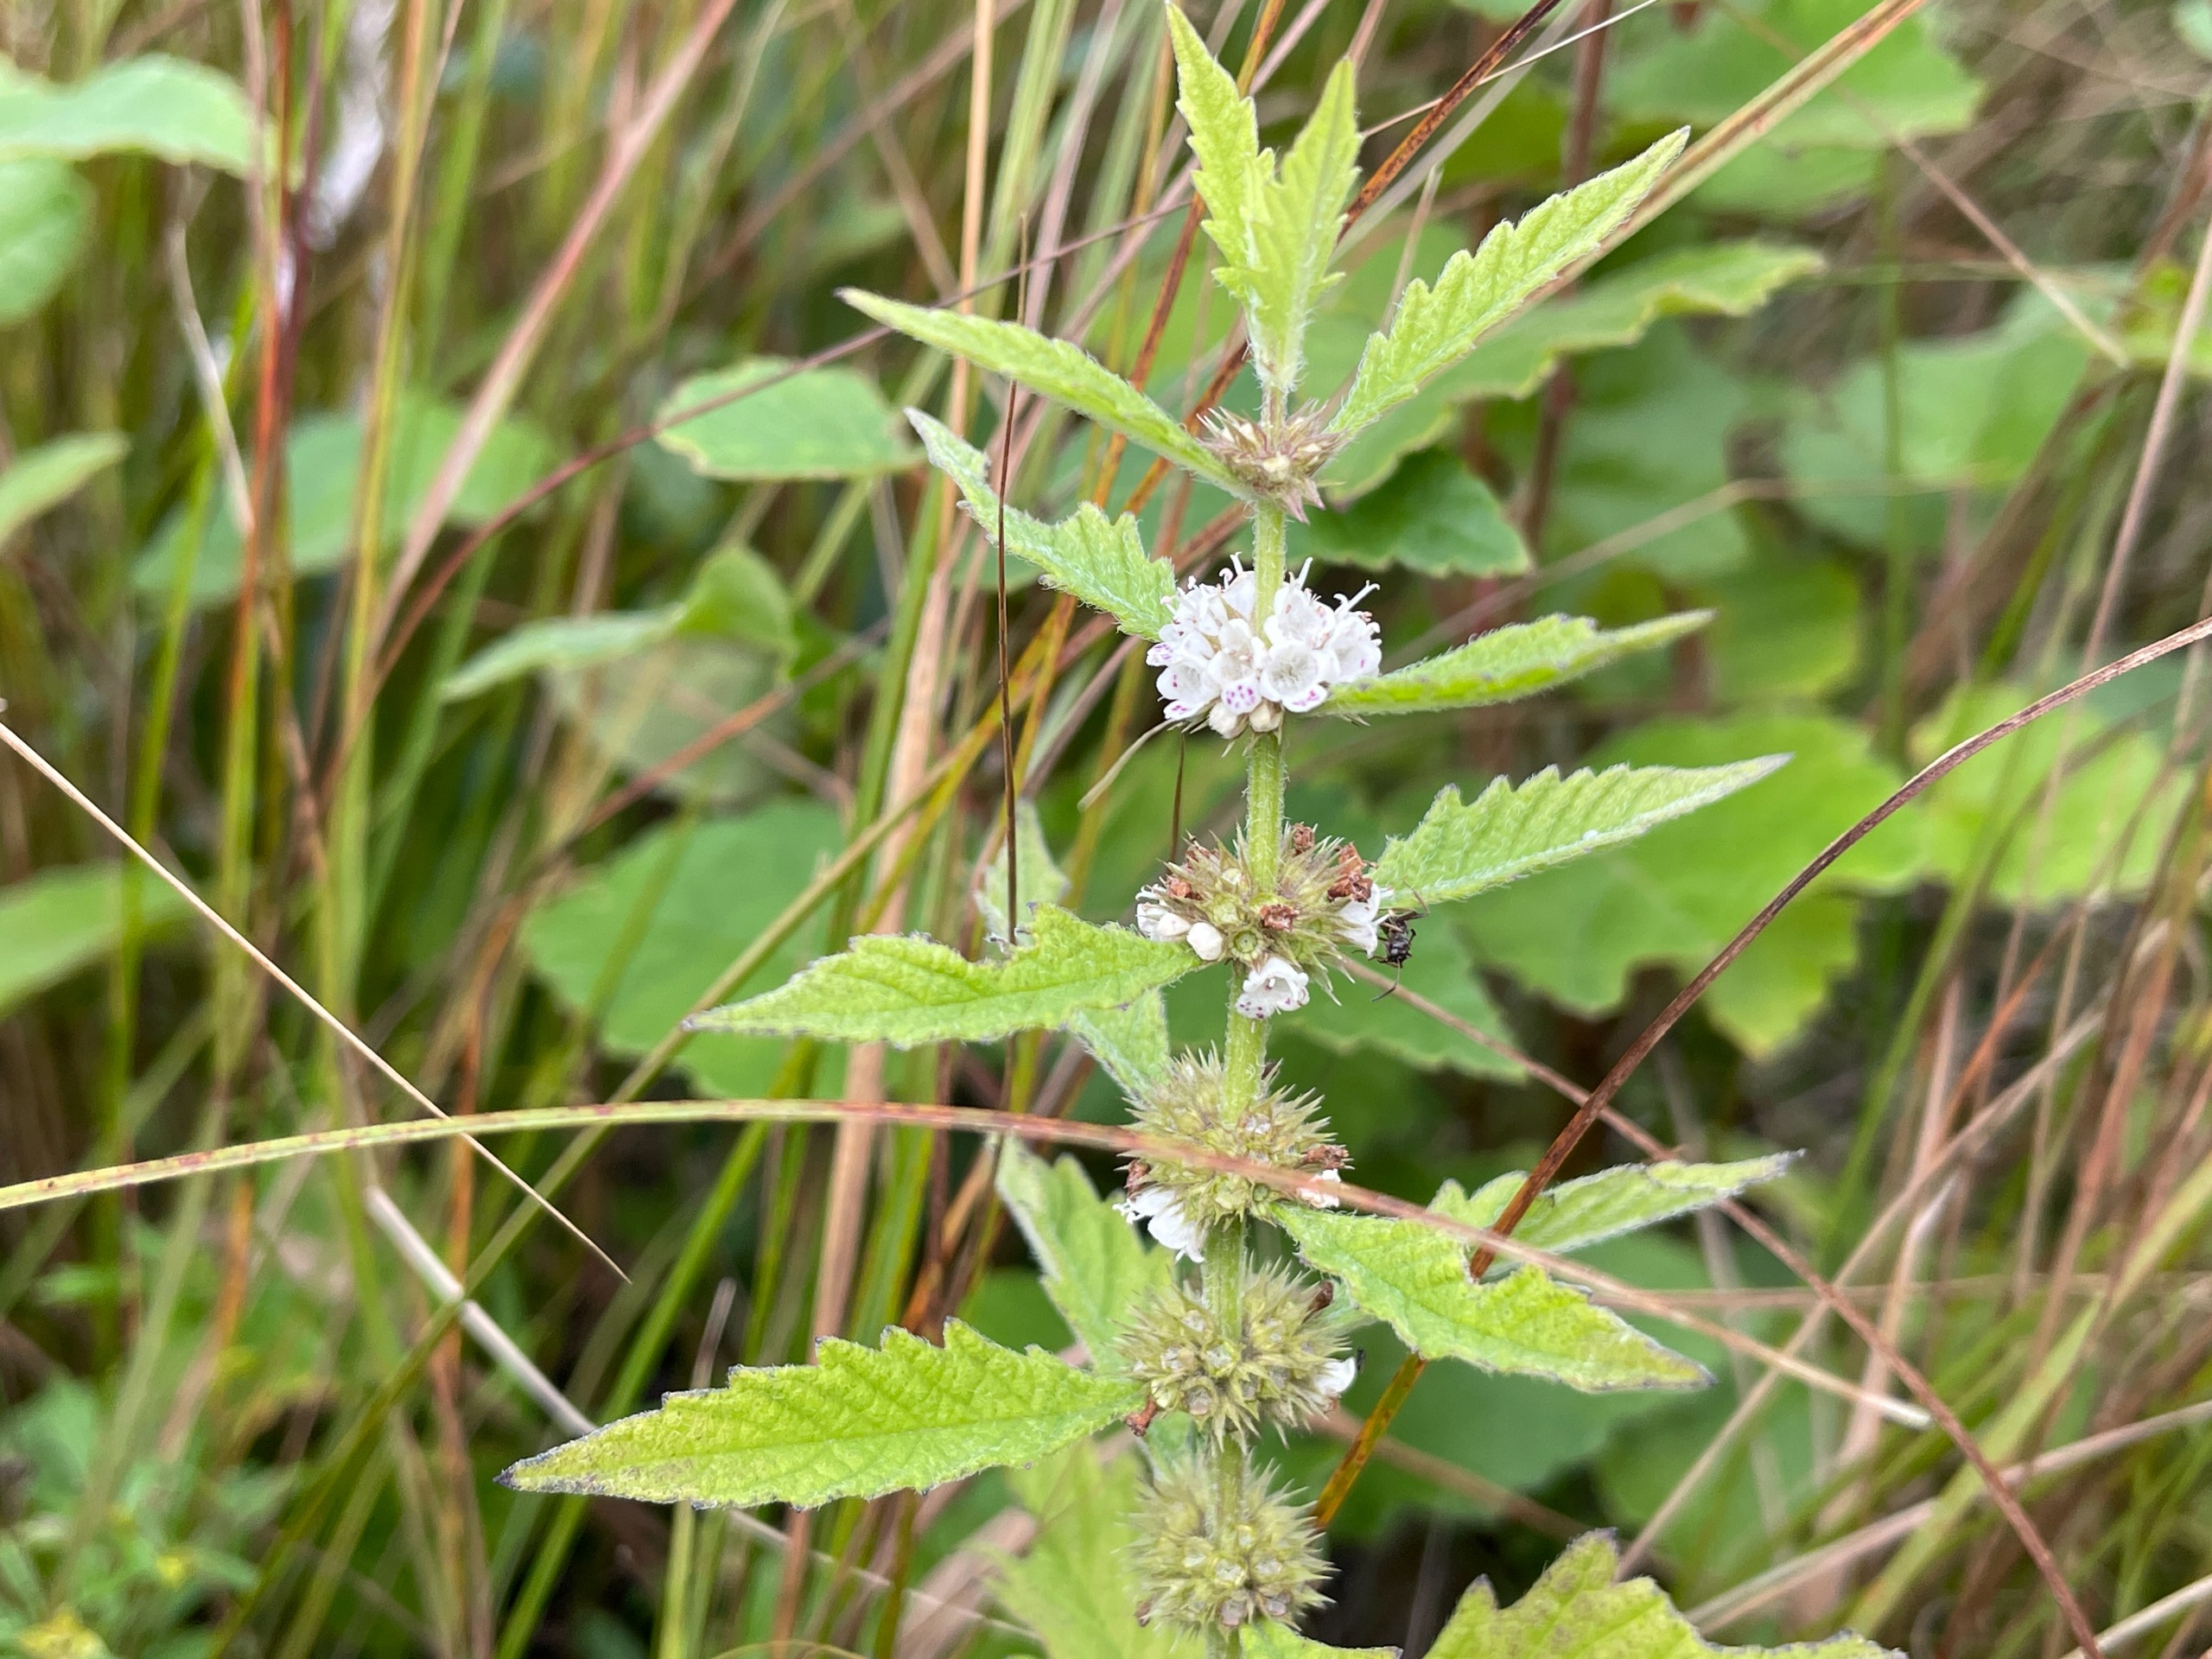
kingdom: Plantae
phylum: Tracheophyta
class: Magnoliopsida
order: Lamiales
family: Lamiaceae
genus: Lycopus
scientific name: Lycopus europaeus
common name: Sværtevæld
